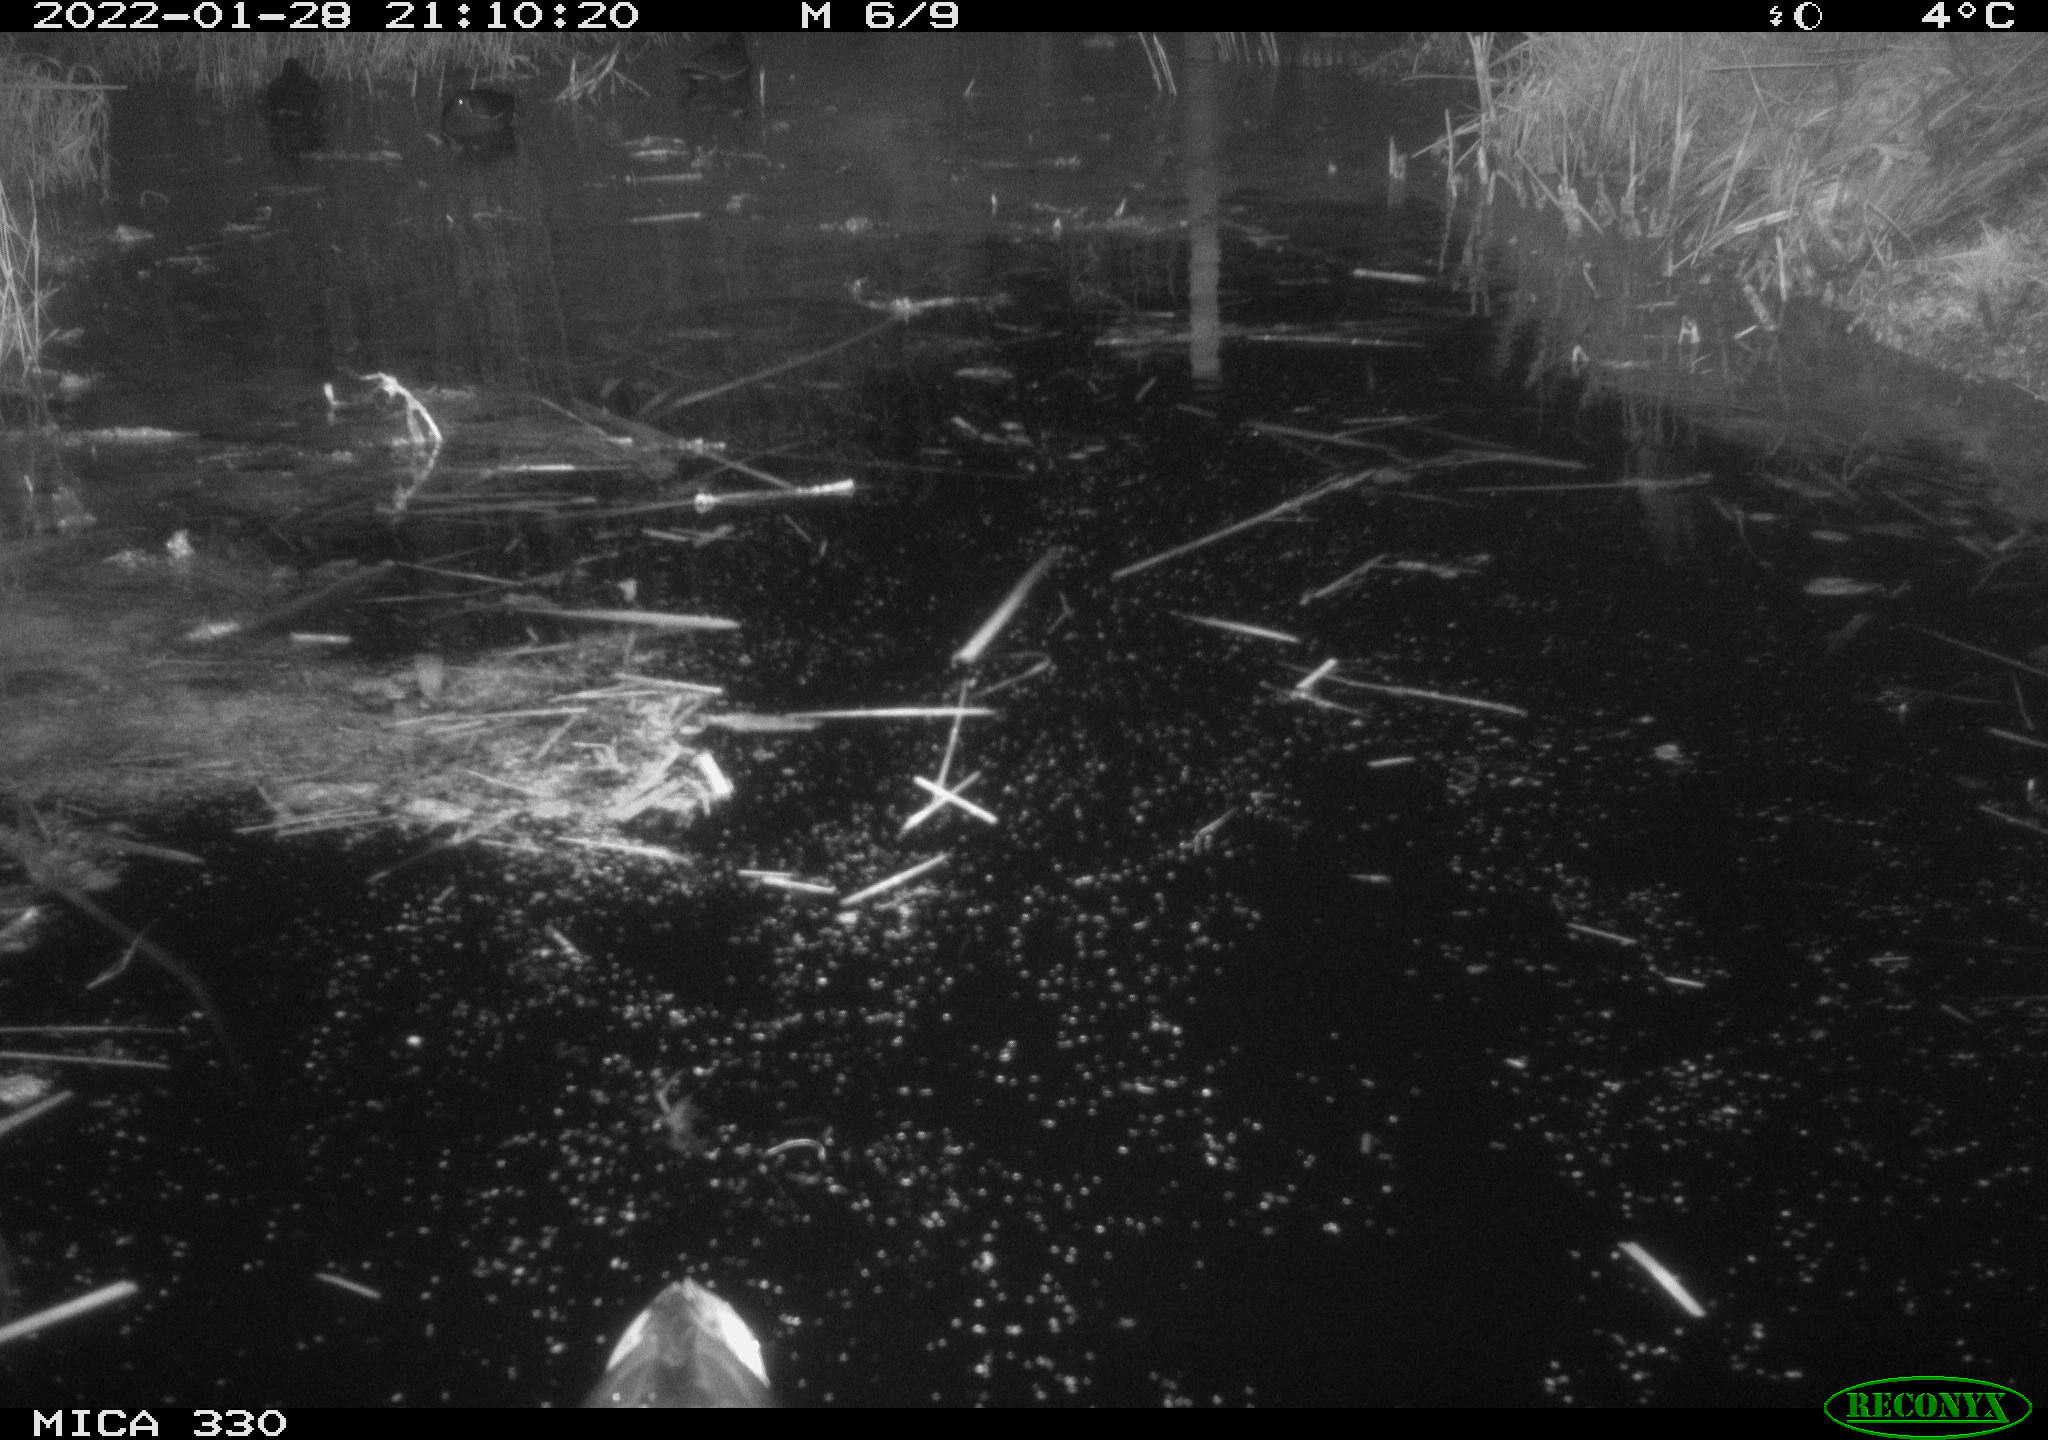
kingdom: Animalia
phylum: Chordata
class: Aves
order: Anseriformes
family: Anatidae
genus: Anas
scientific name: Anas platyrhynchos
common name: Mallard
